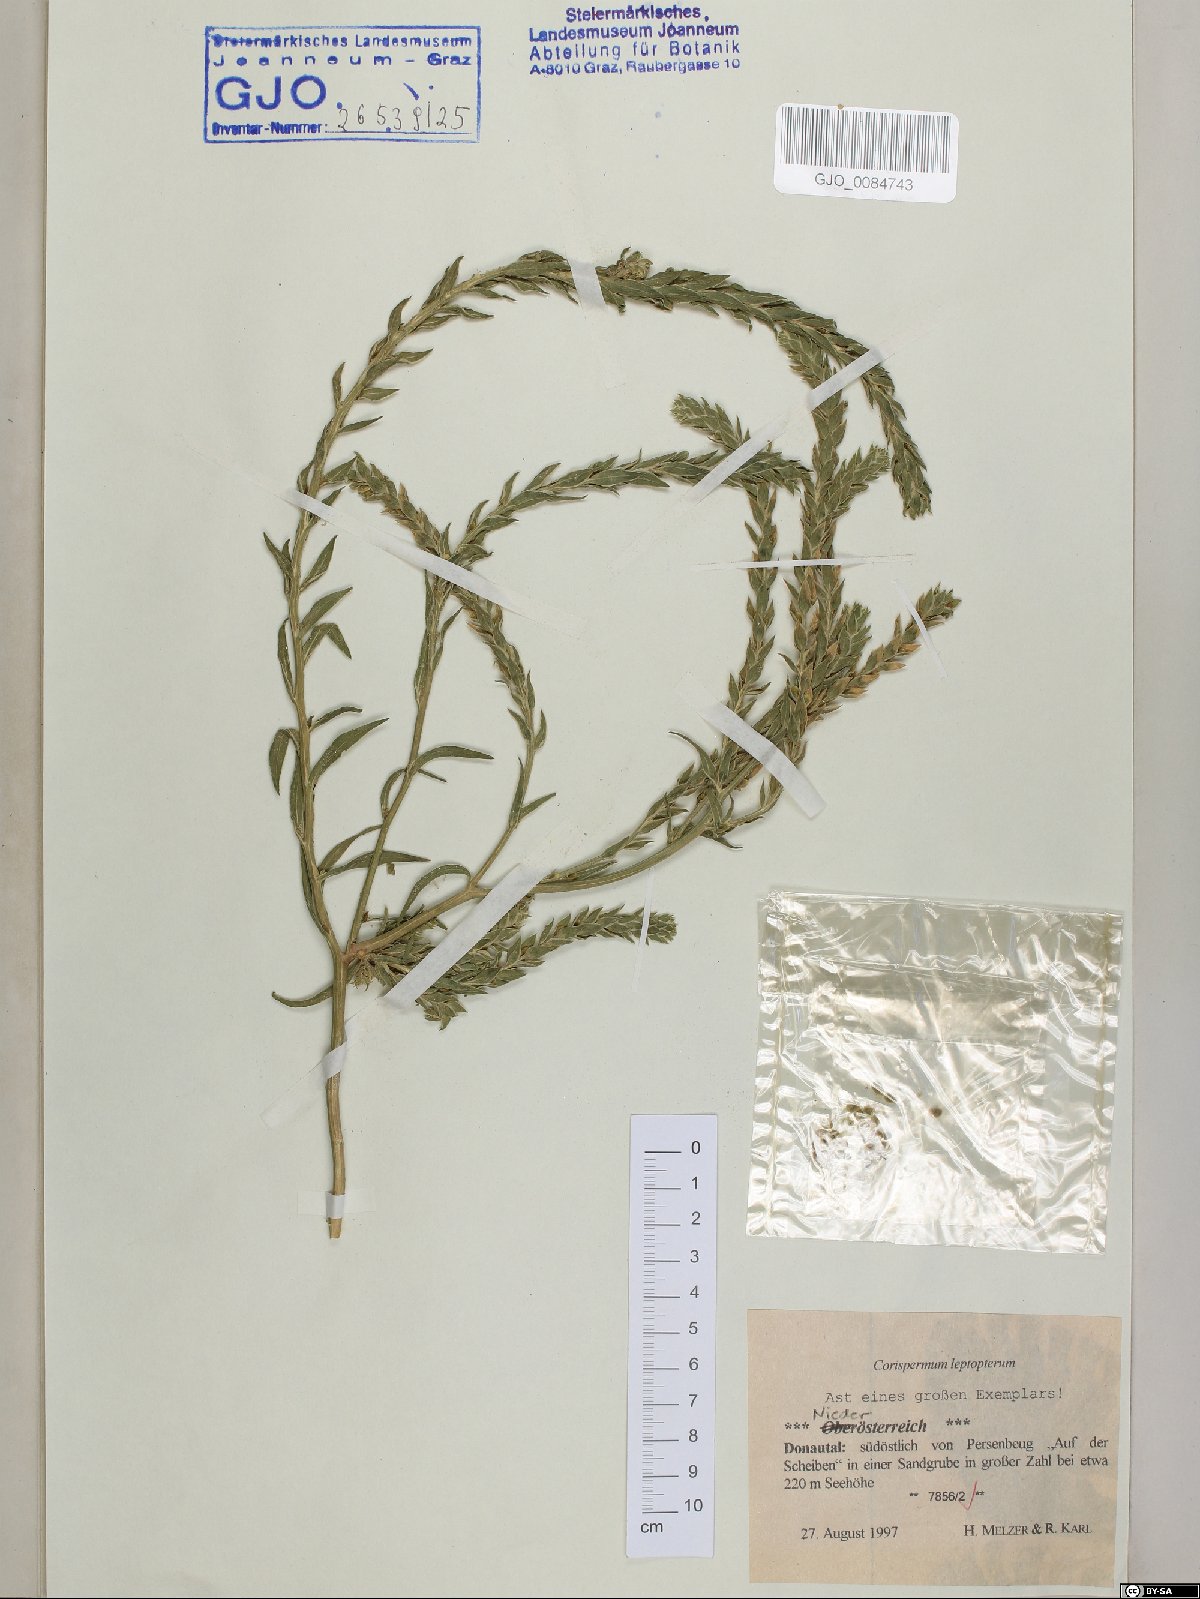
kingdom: Plantae
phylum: Tracheophyta
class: Magnoliopsida
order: Caryophyllales
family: Amaranthaceae
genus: Corispermum
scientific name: Corispermum pallasii
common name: Siberian bugseed
